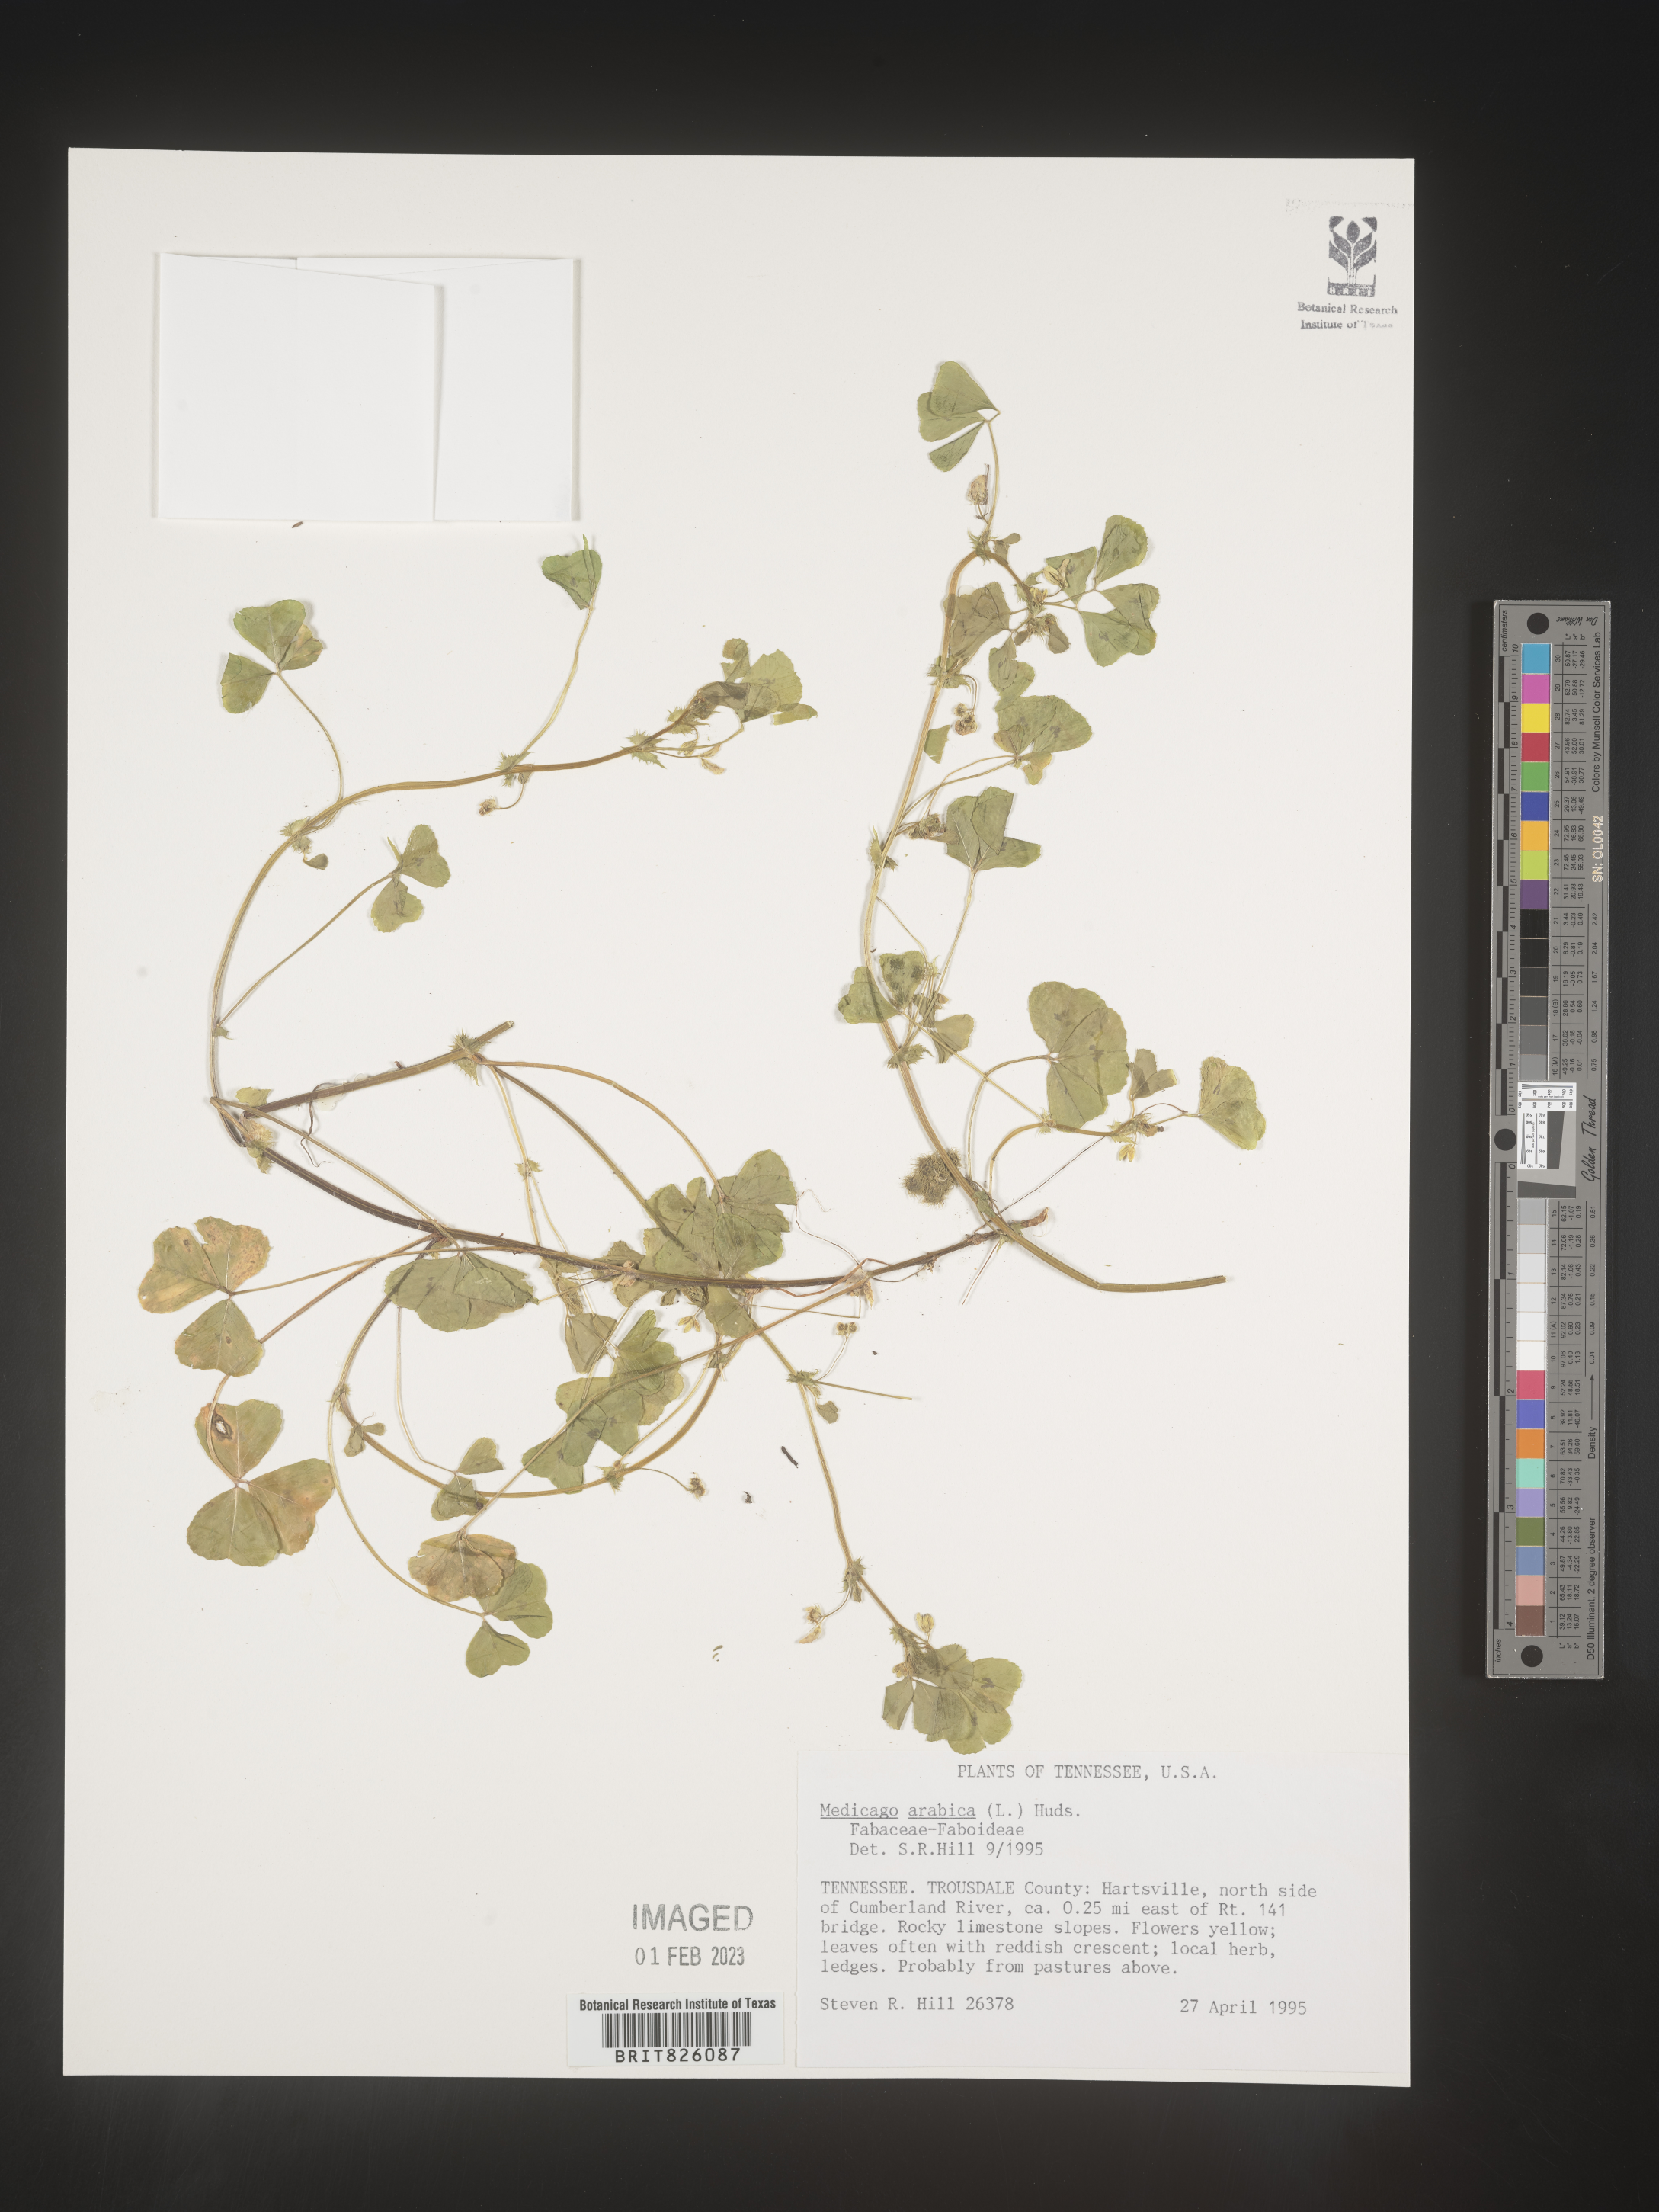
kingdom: Plantae
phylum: Tracheophyta
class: Magnoliopsida
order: Fabales
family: Fabaceae
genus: Medicago
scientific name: Medicago arabica
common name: Spotted medick
